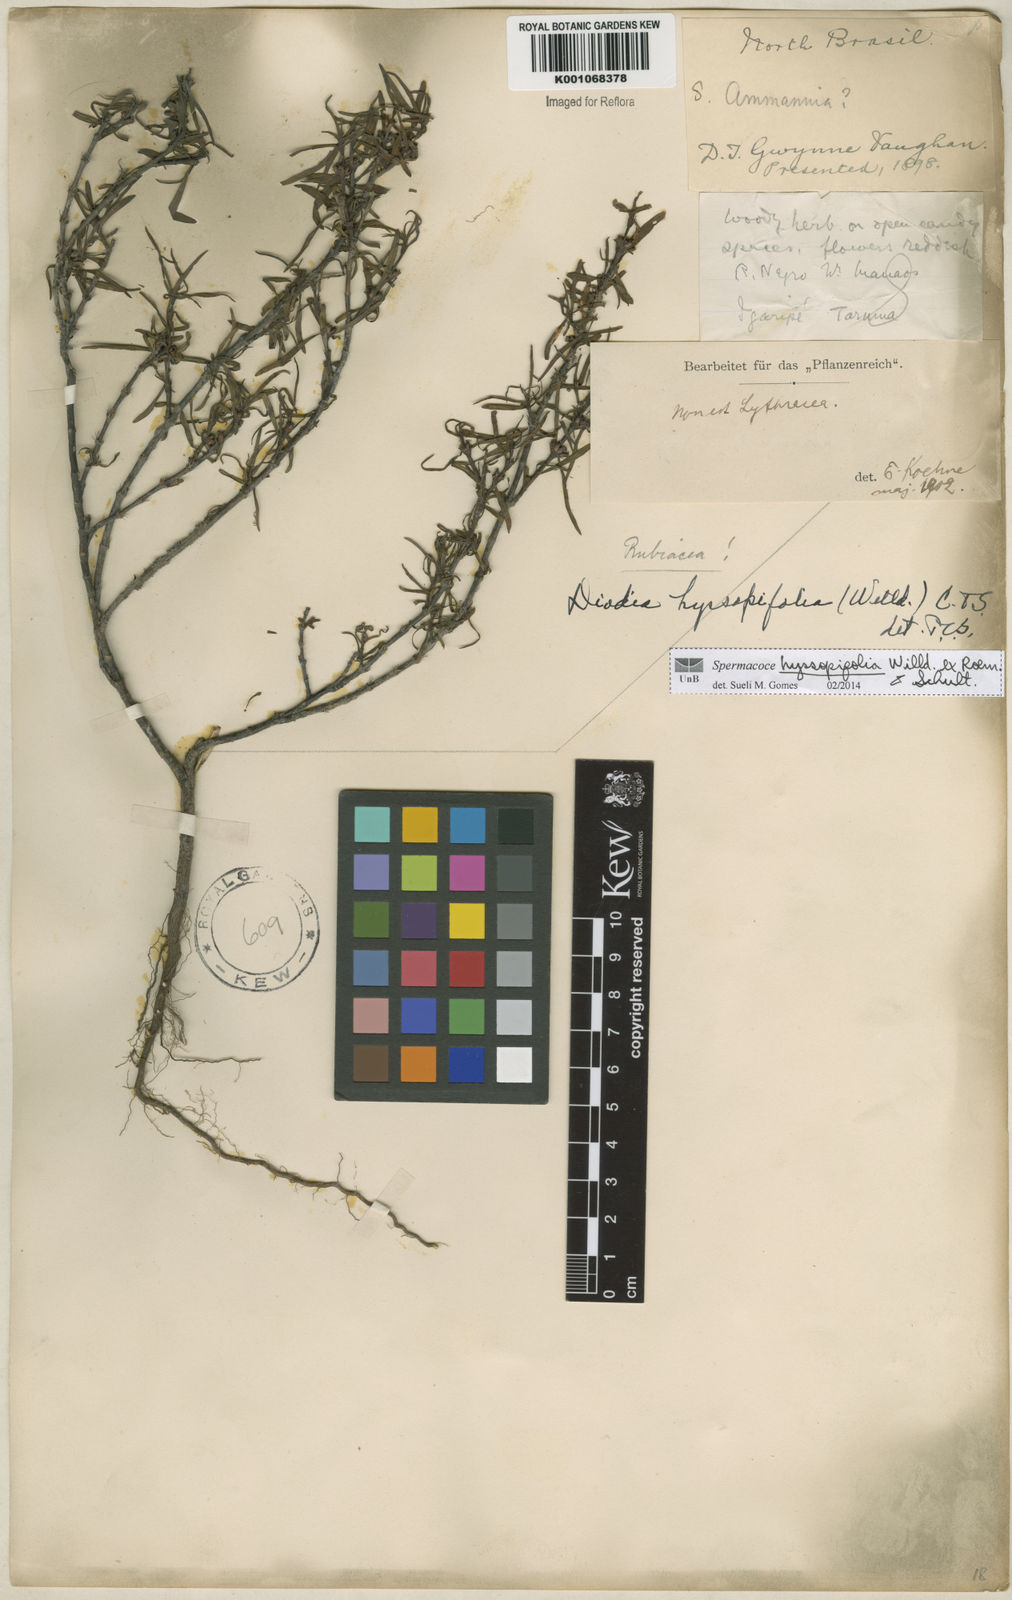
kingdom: Plantae
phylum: Tracheophyta
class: Magnoliopsida
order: Gentianales
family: Rubiaceae
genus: Spermacoce
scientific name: Spermacoce
